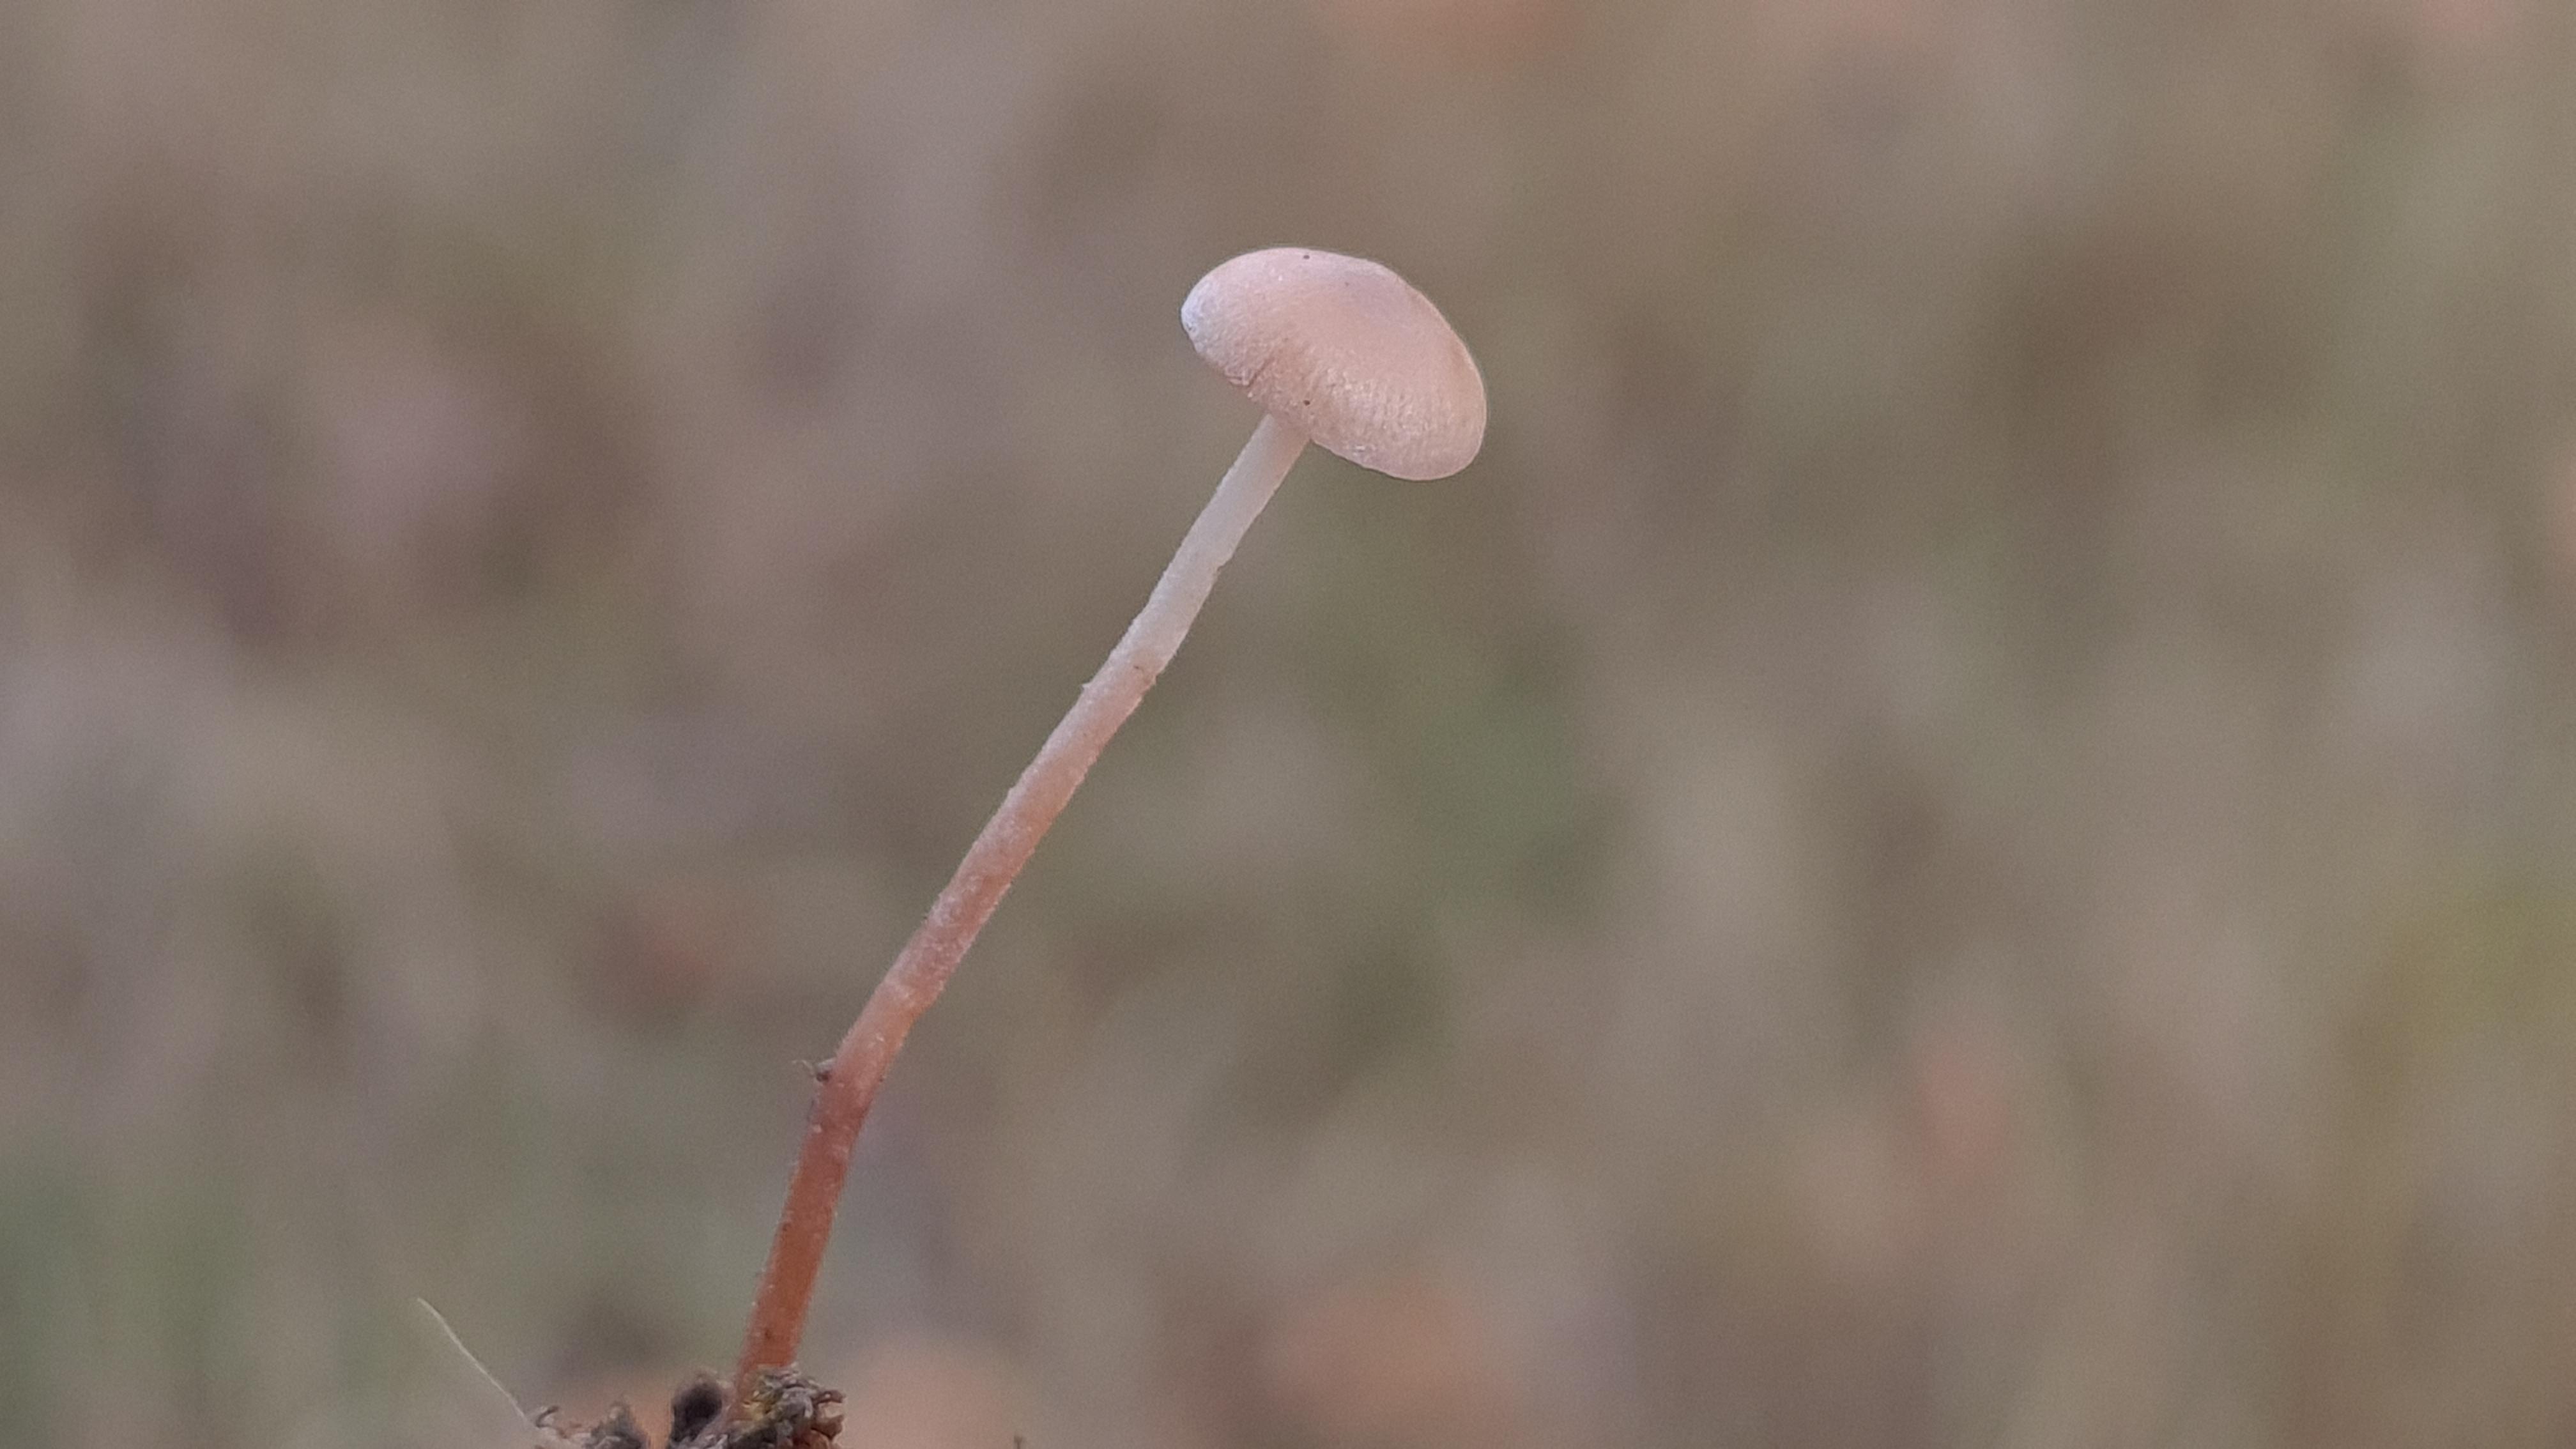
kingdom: Fungi
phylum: Basidiomycota
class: Agaricomycetes
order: Agaricales
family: Marasmiaceae
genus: Baeospora
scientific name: Baeospora myosura
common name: koglebruskhat
